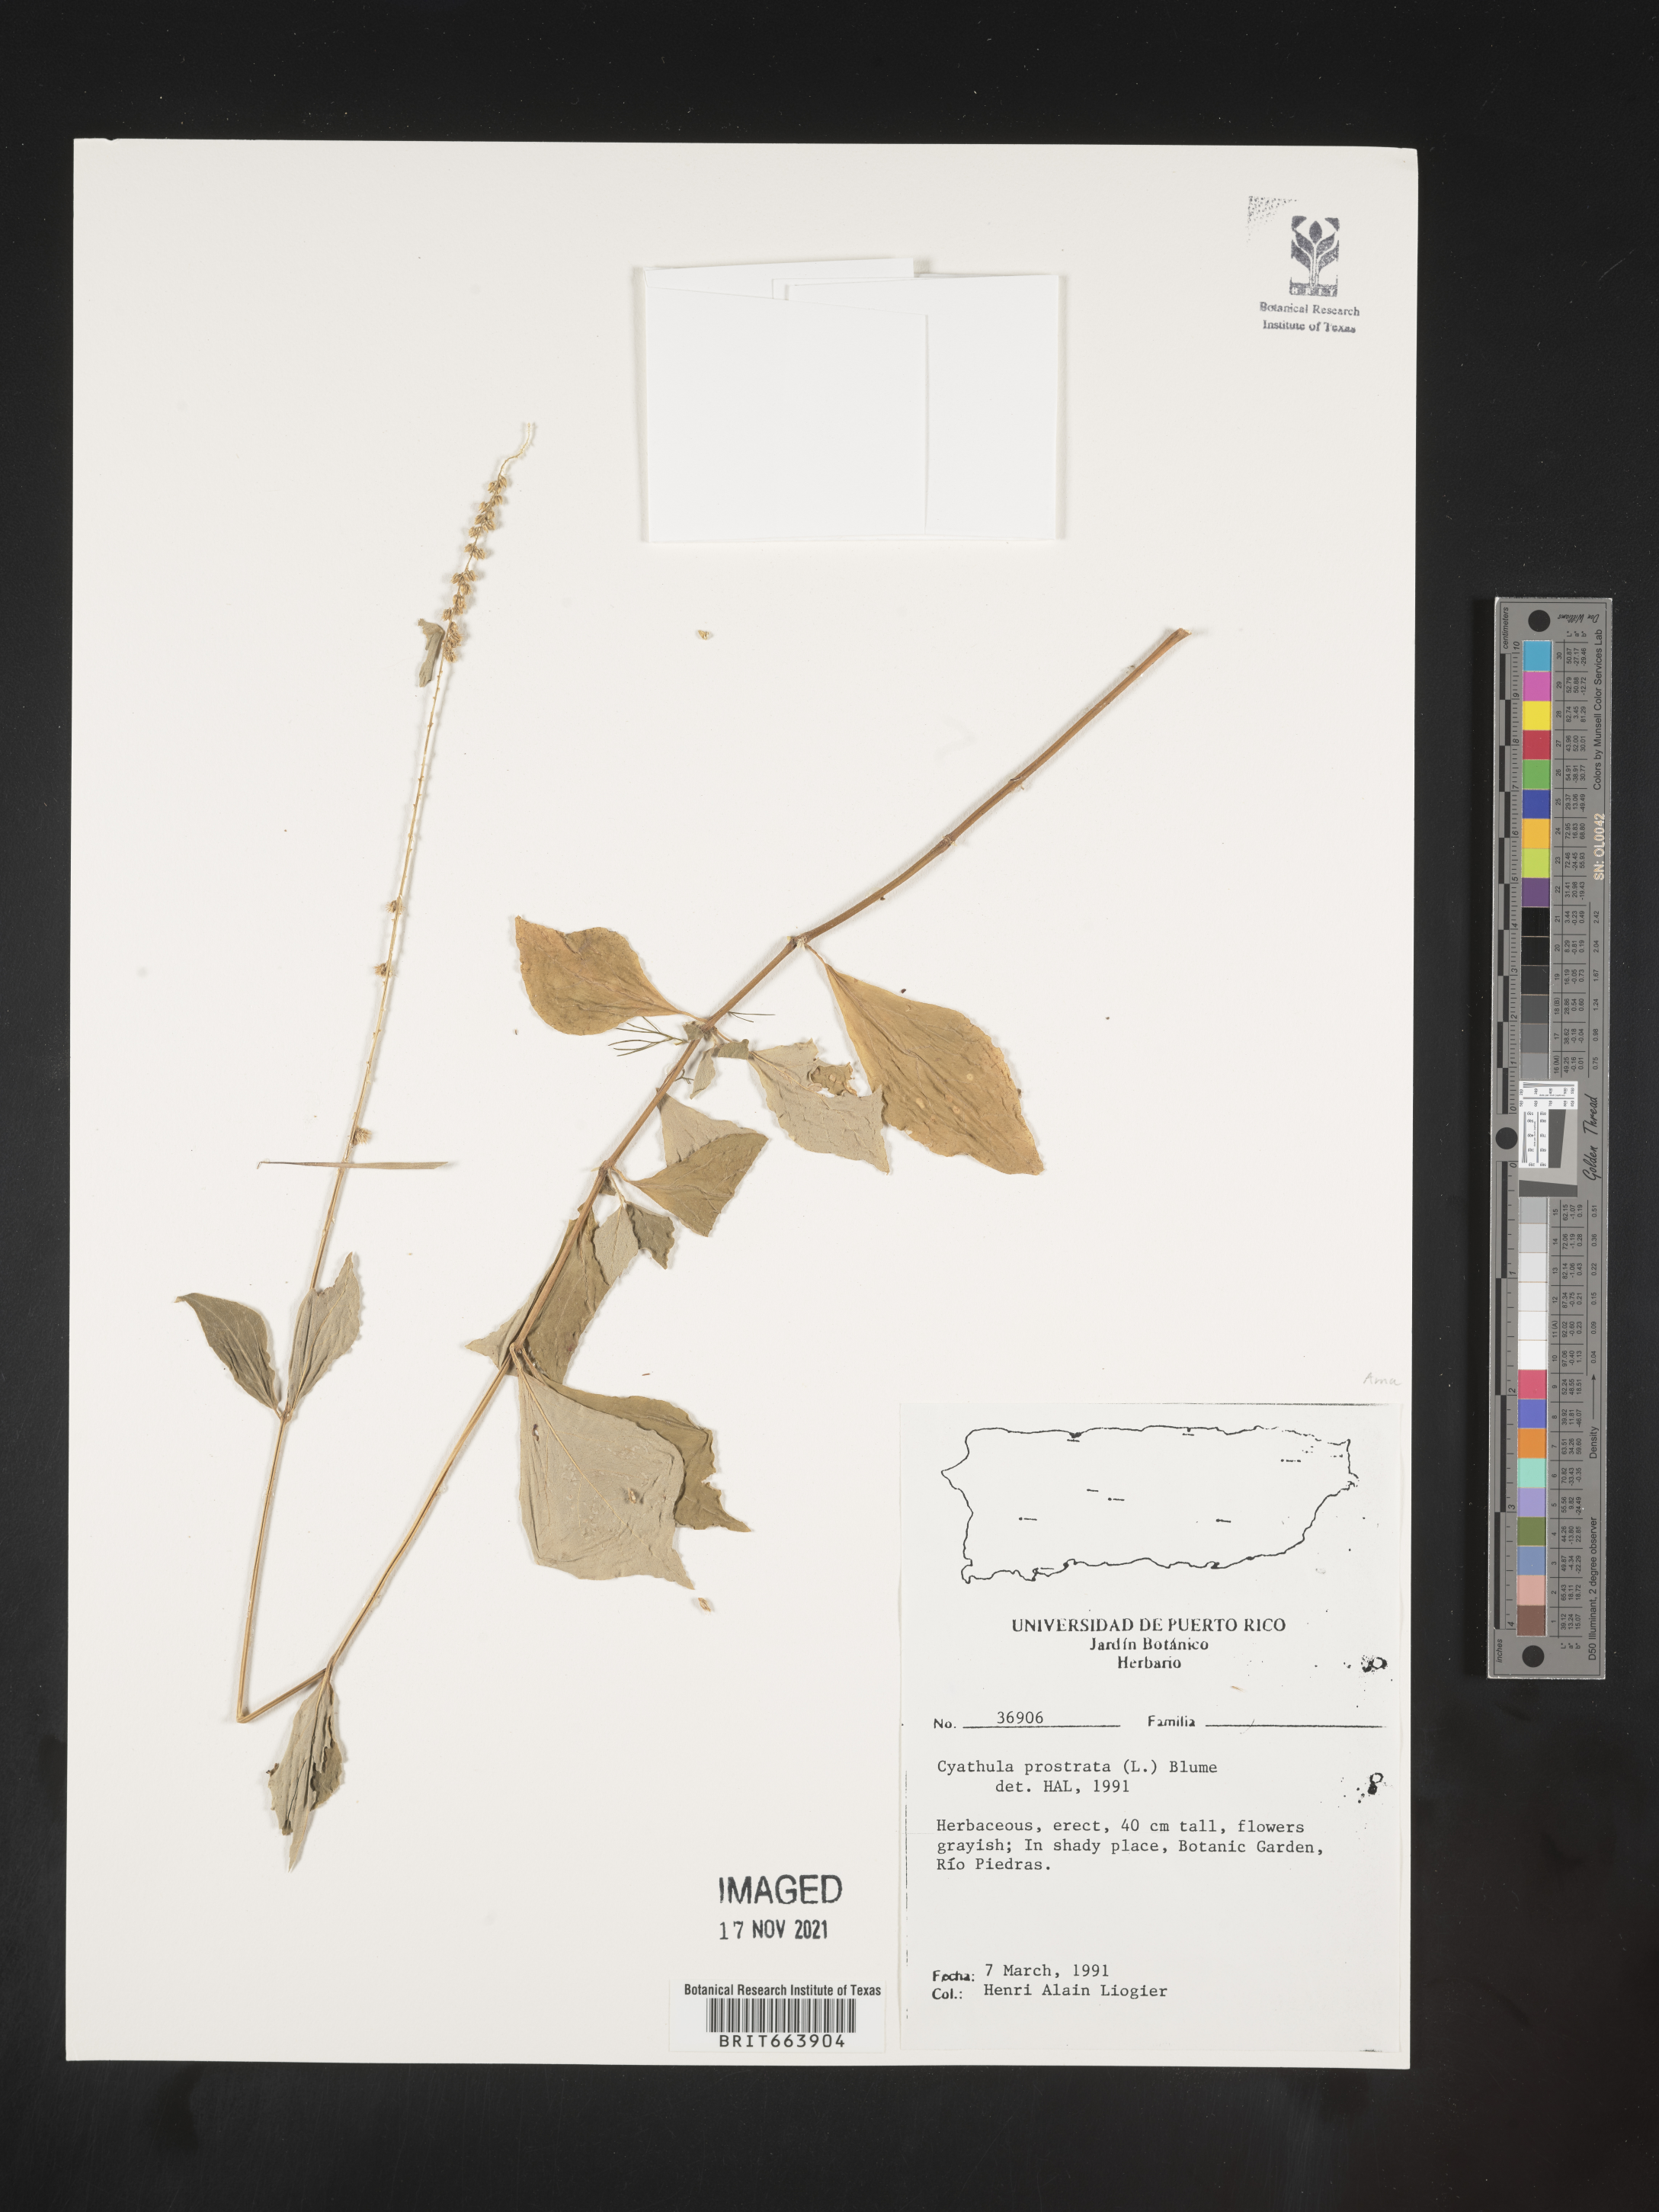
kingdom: Plantae
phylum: Tracheophyta
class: Magnoliopsida
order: Caryophyllales
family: Amaranthaceae
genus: Cyathula
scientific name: Cyathula
